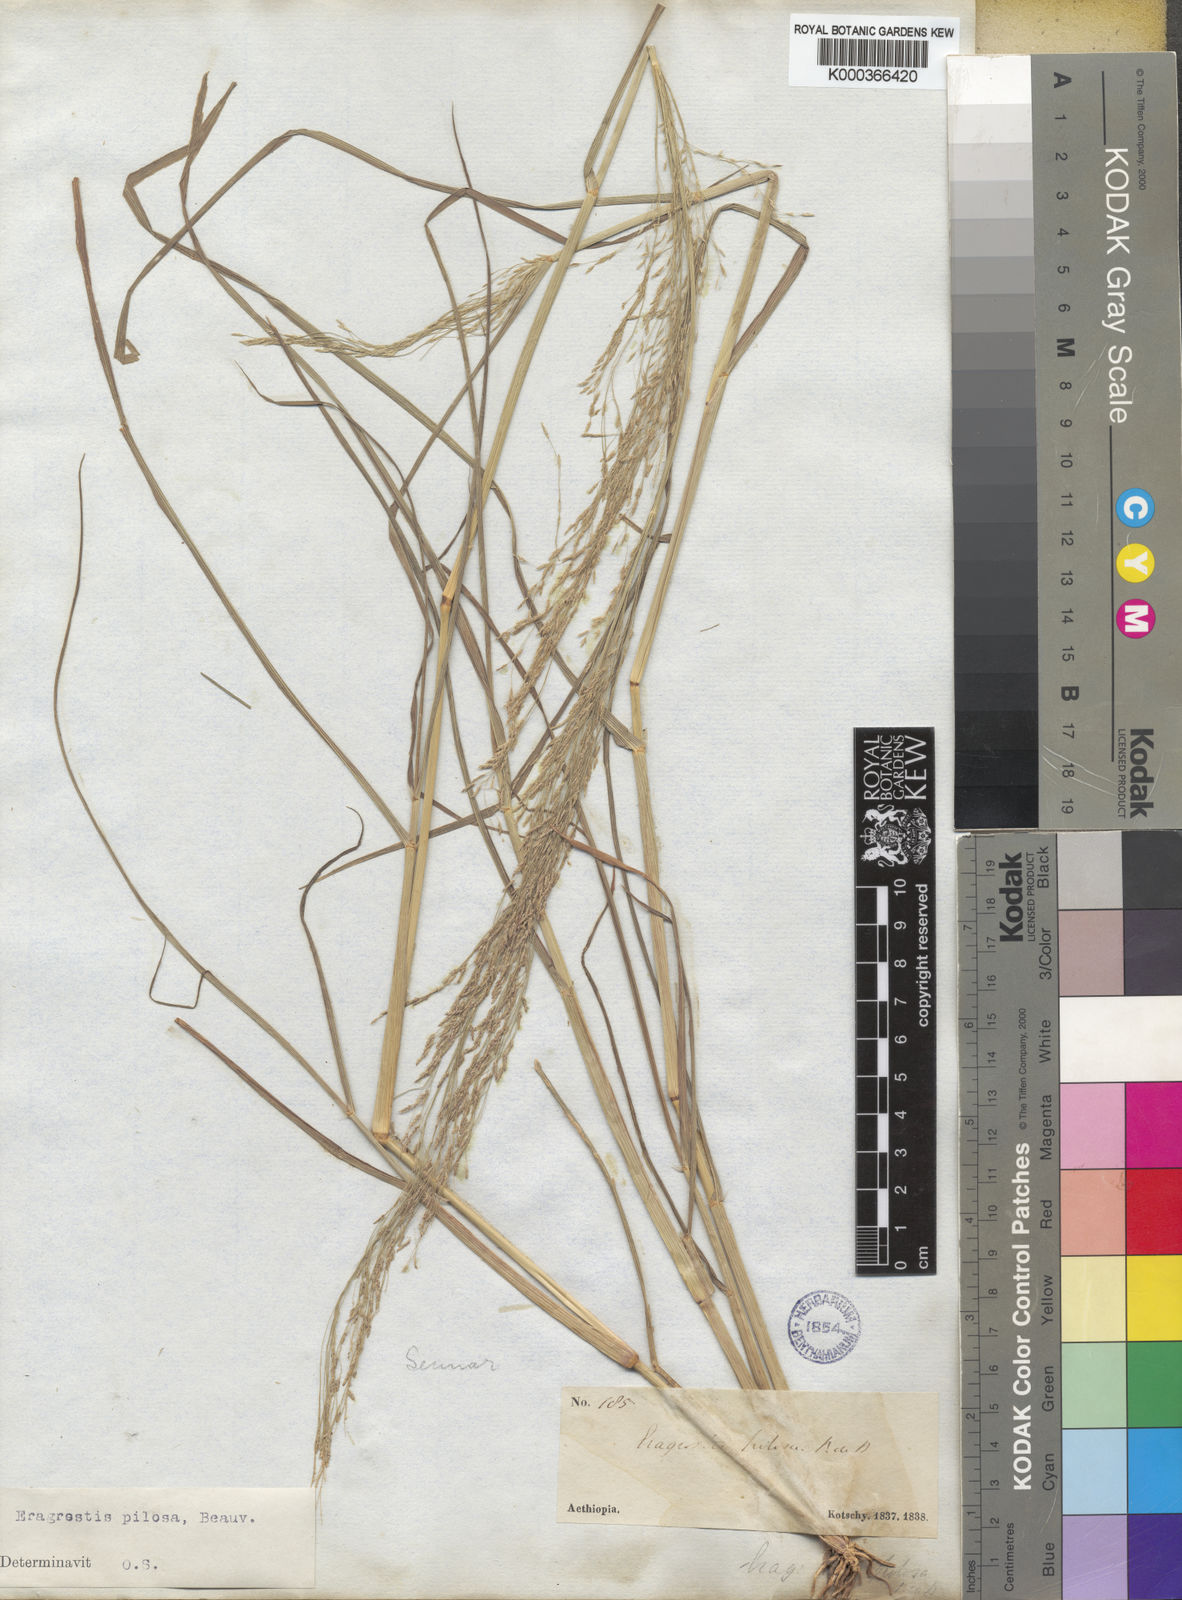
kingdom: Plantae
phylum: Tracheophyta
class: Liliopsida
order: Poales
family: Poaceae
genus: Eragrostis
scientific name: Eragrostis pilosa
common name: Indian lovegrass
